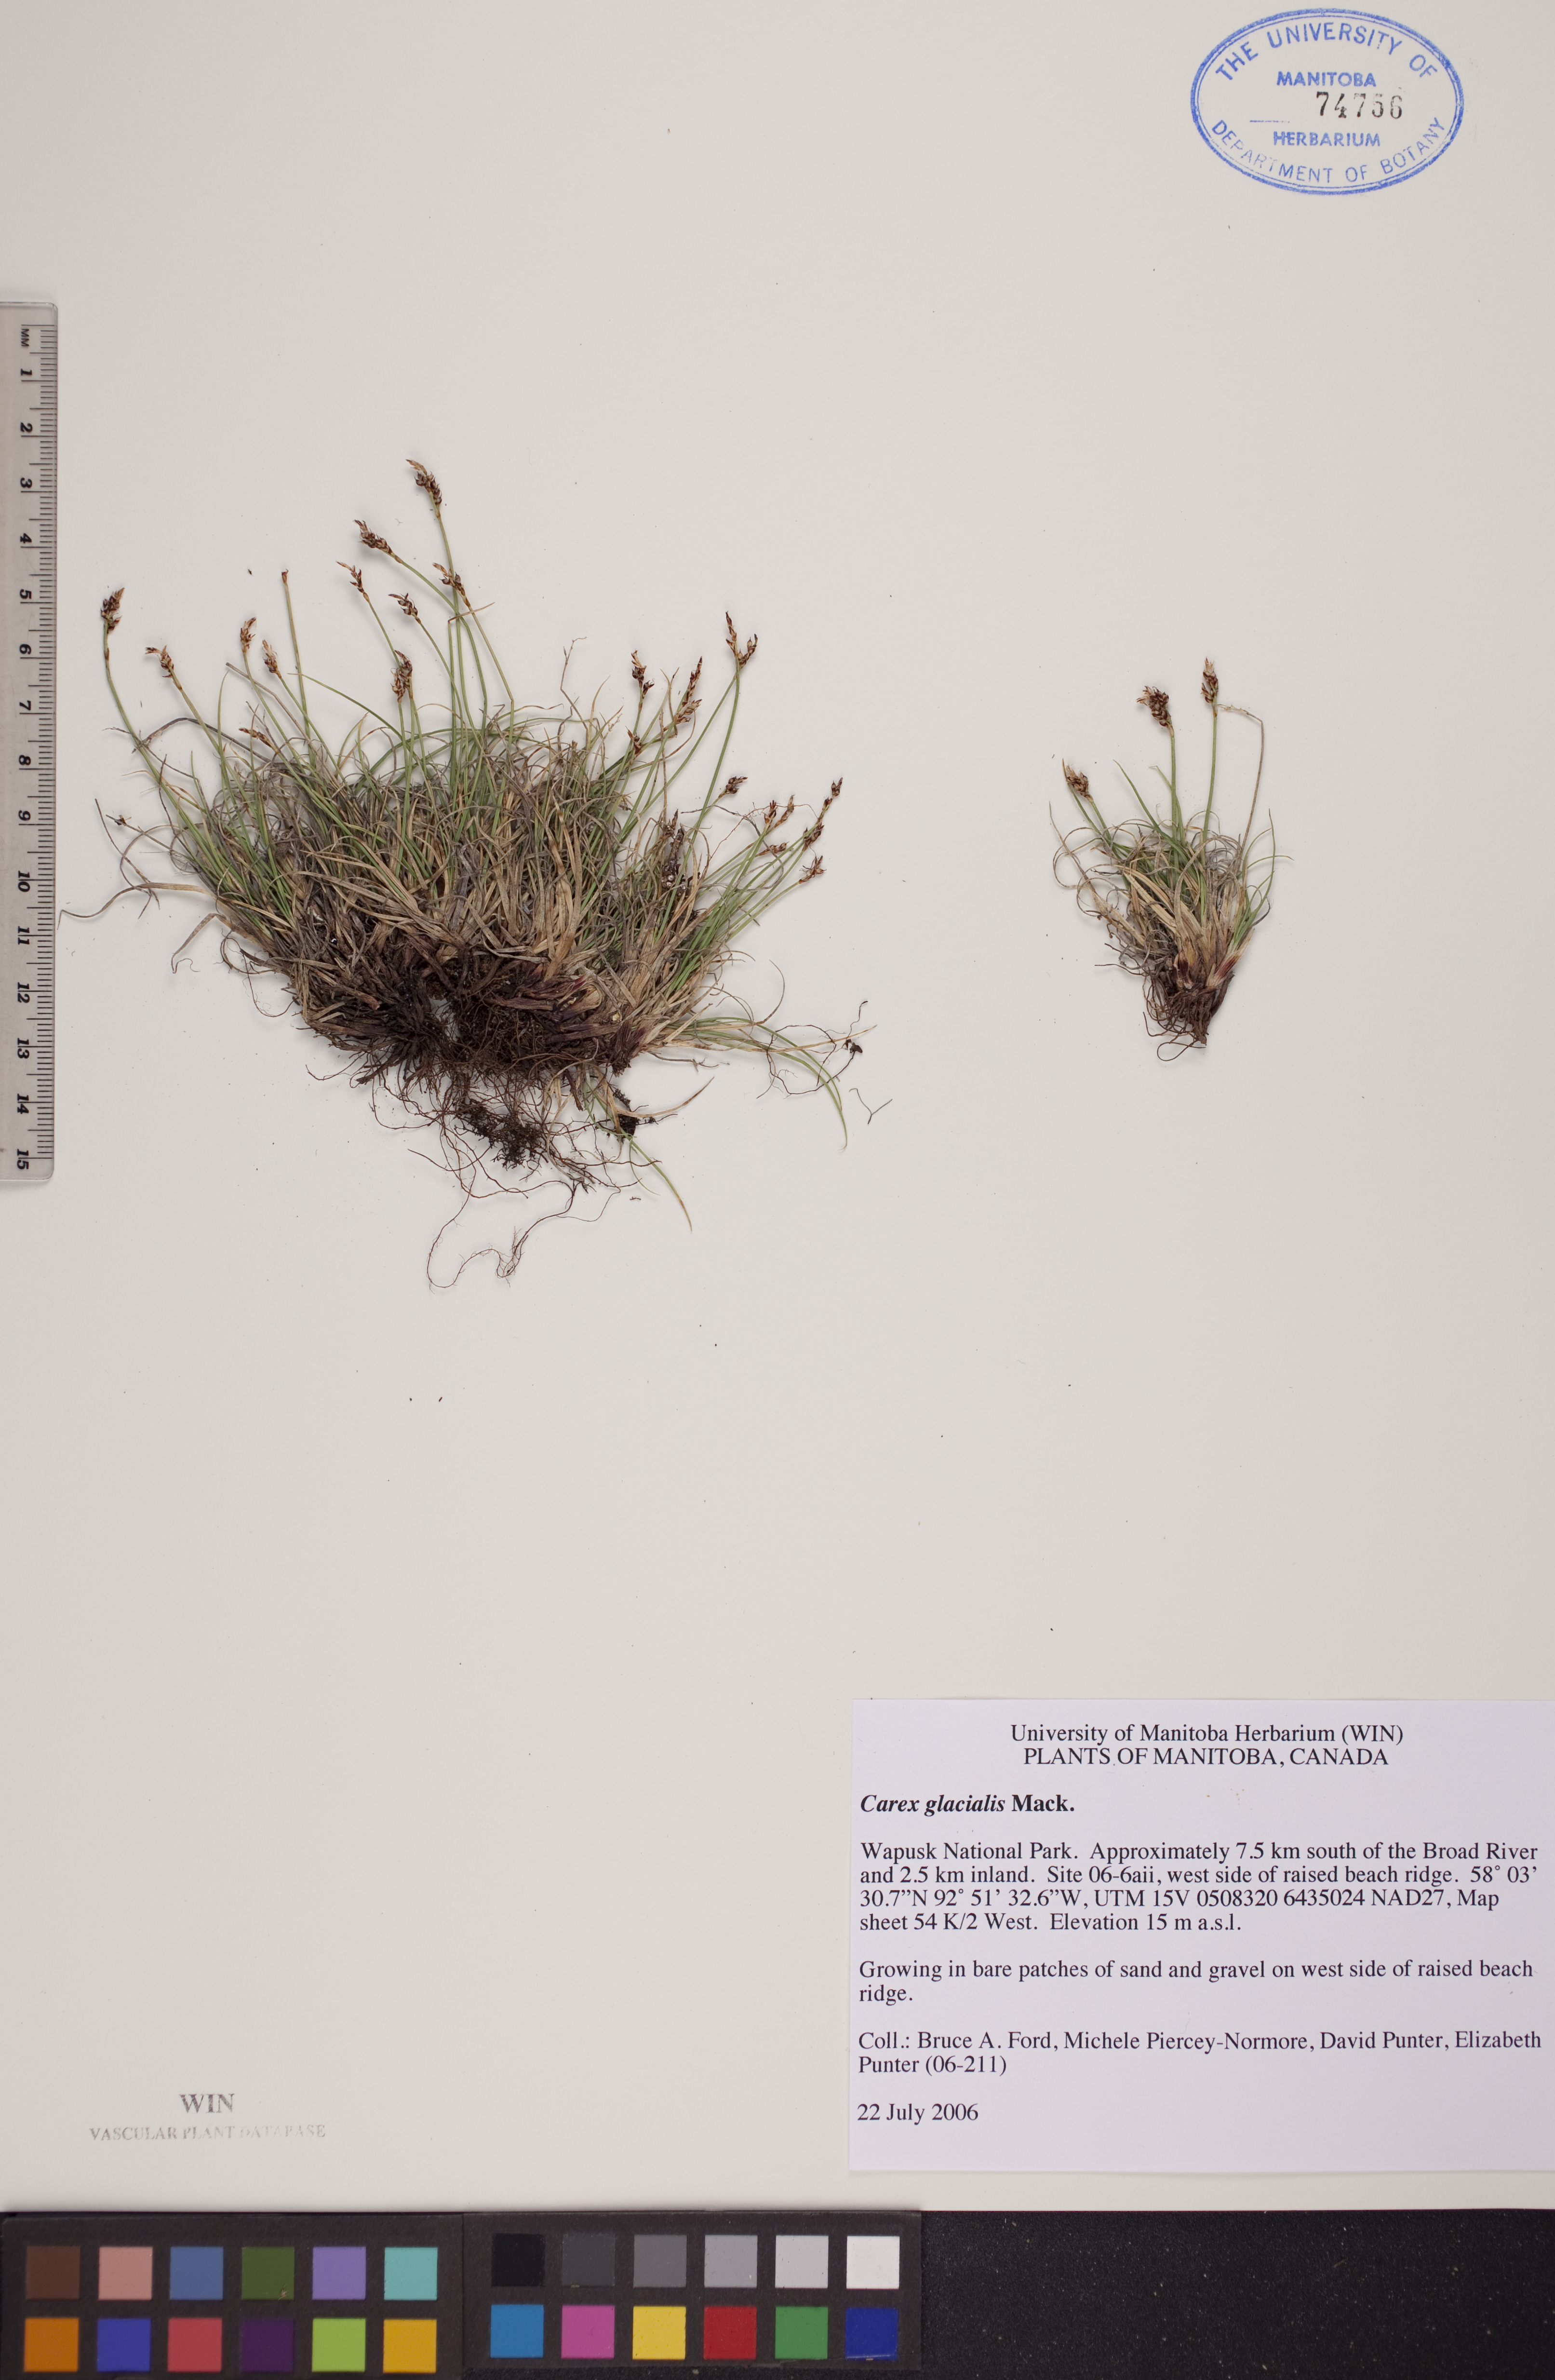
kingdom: Plantae
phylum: Tracheophyta
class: Liliopsida
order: Poales
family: Cyperaceae
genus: Carex
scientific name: Carex glacialis
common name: Newfoundland sedge
